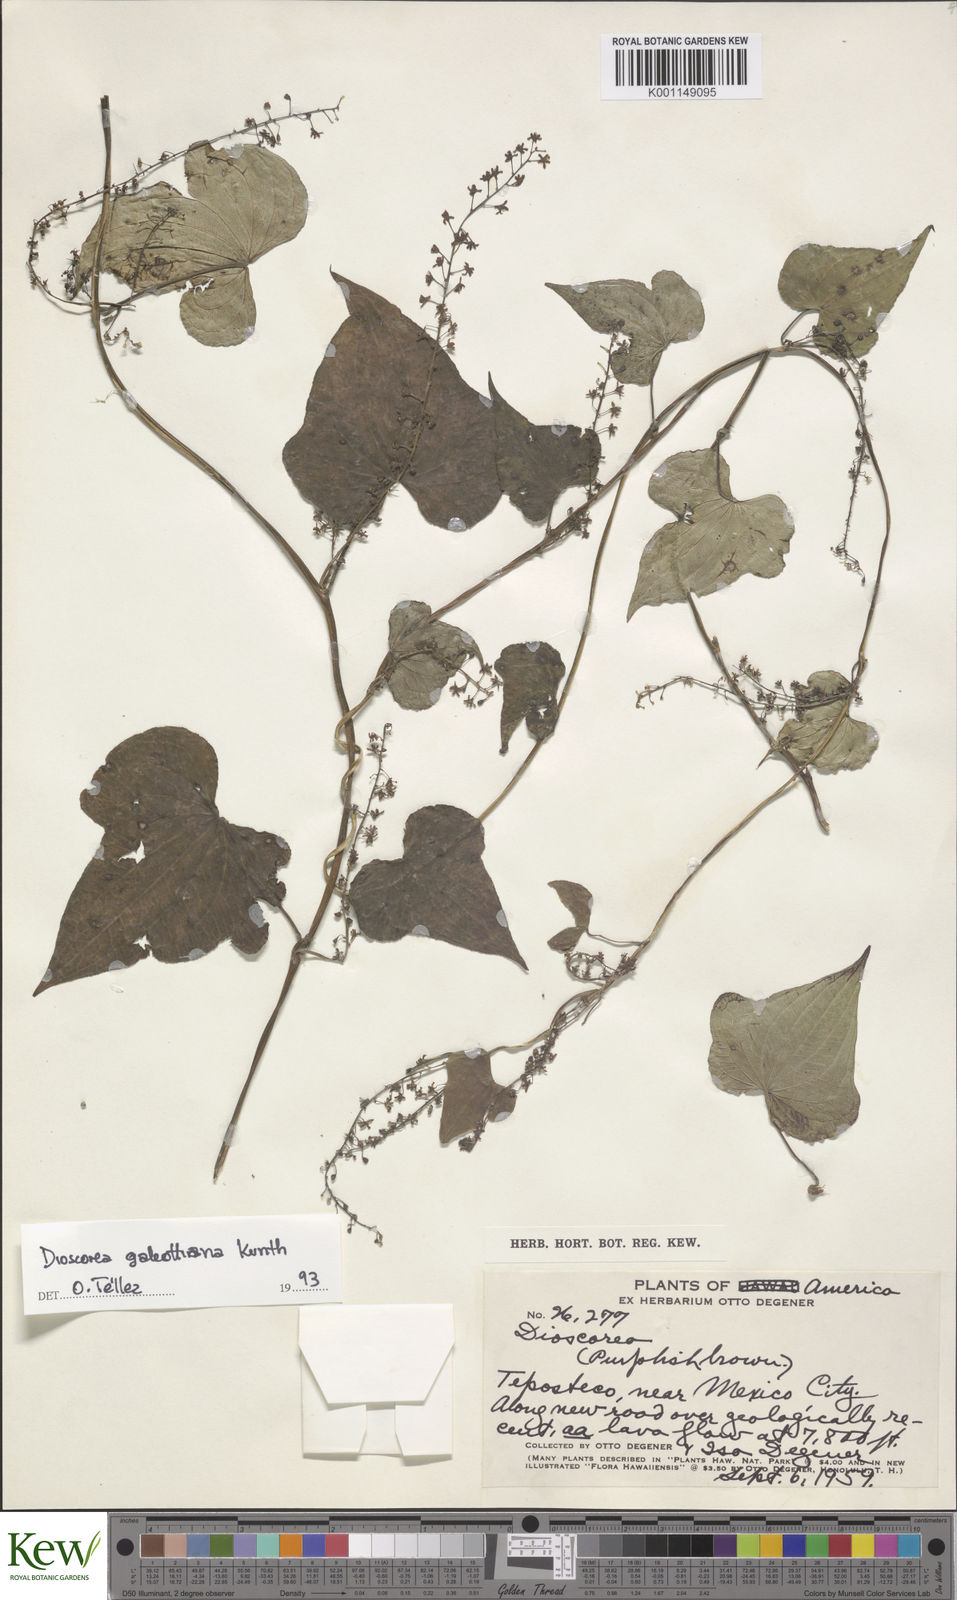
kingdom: Plantae
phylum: Tracheophyta
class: Liliopsida
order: Dioscoreales
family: Dioscoreaceae
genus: Dioscorea
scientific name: Dioscorea
